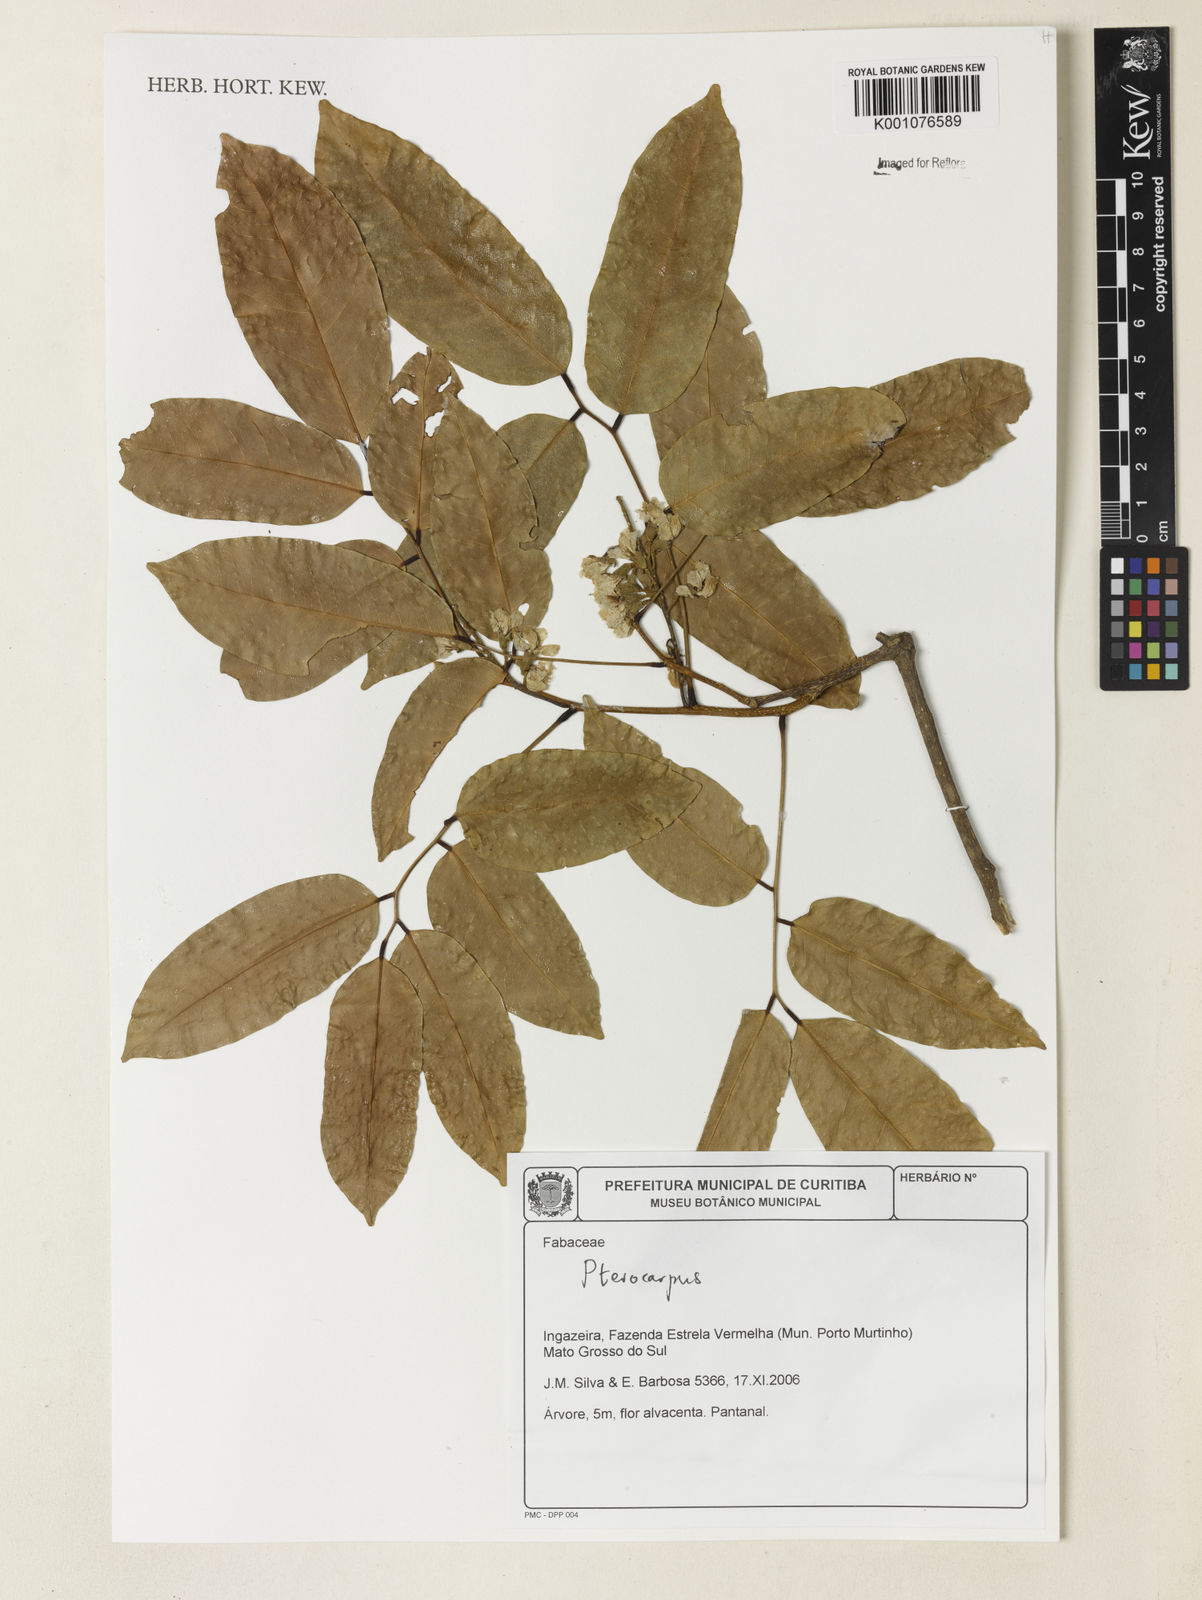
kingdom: Plantae
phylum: Tracheophyta
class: Magnoliopsida
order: Fabales
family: Fabaceae
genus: Pterocarpus
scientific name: Pterocarpus
